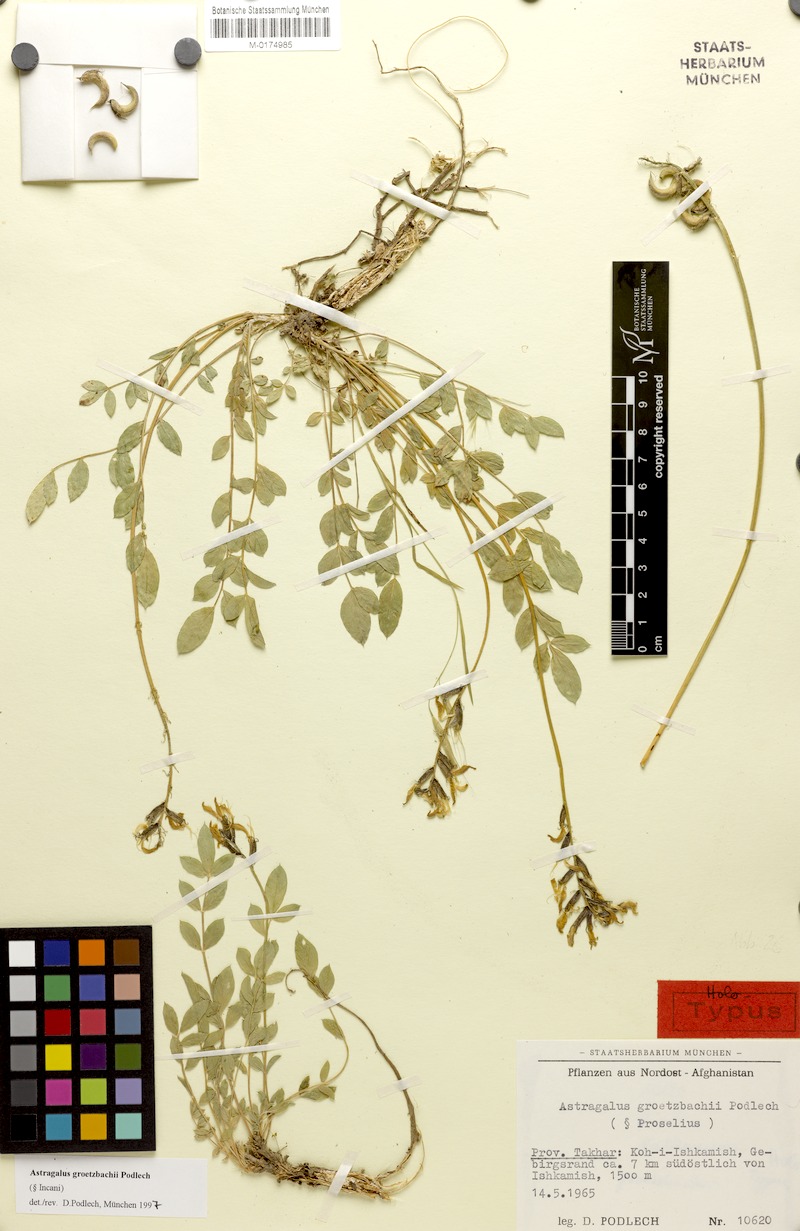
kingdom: Plantae
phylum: Tracheophyta
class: Magnoliopsida
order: Fabales
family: Fabaceae
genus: Astragalus
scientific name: Astragalus groetzbachii
